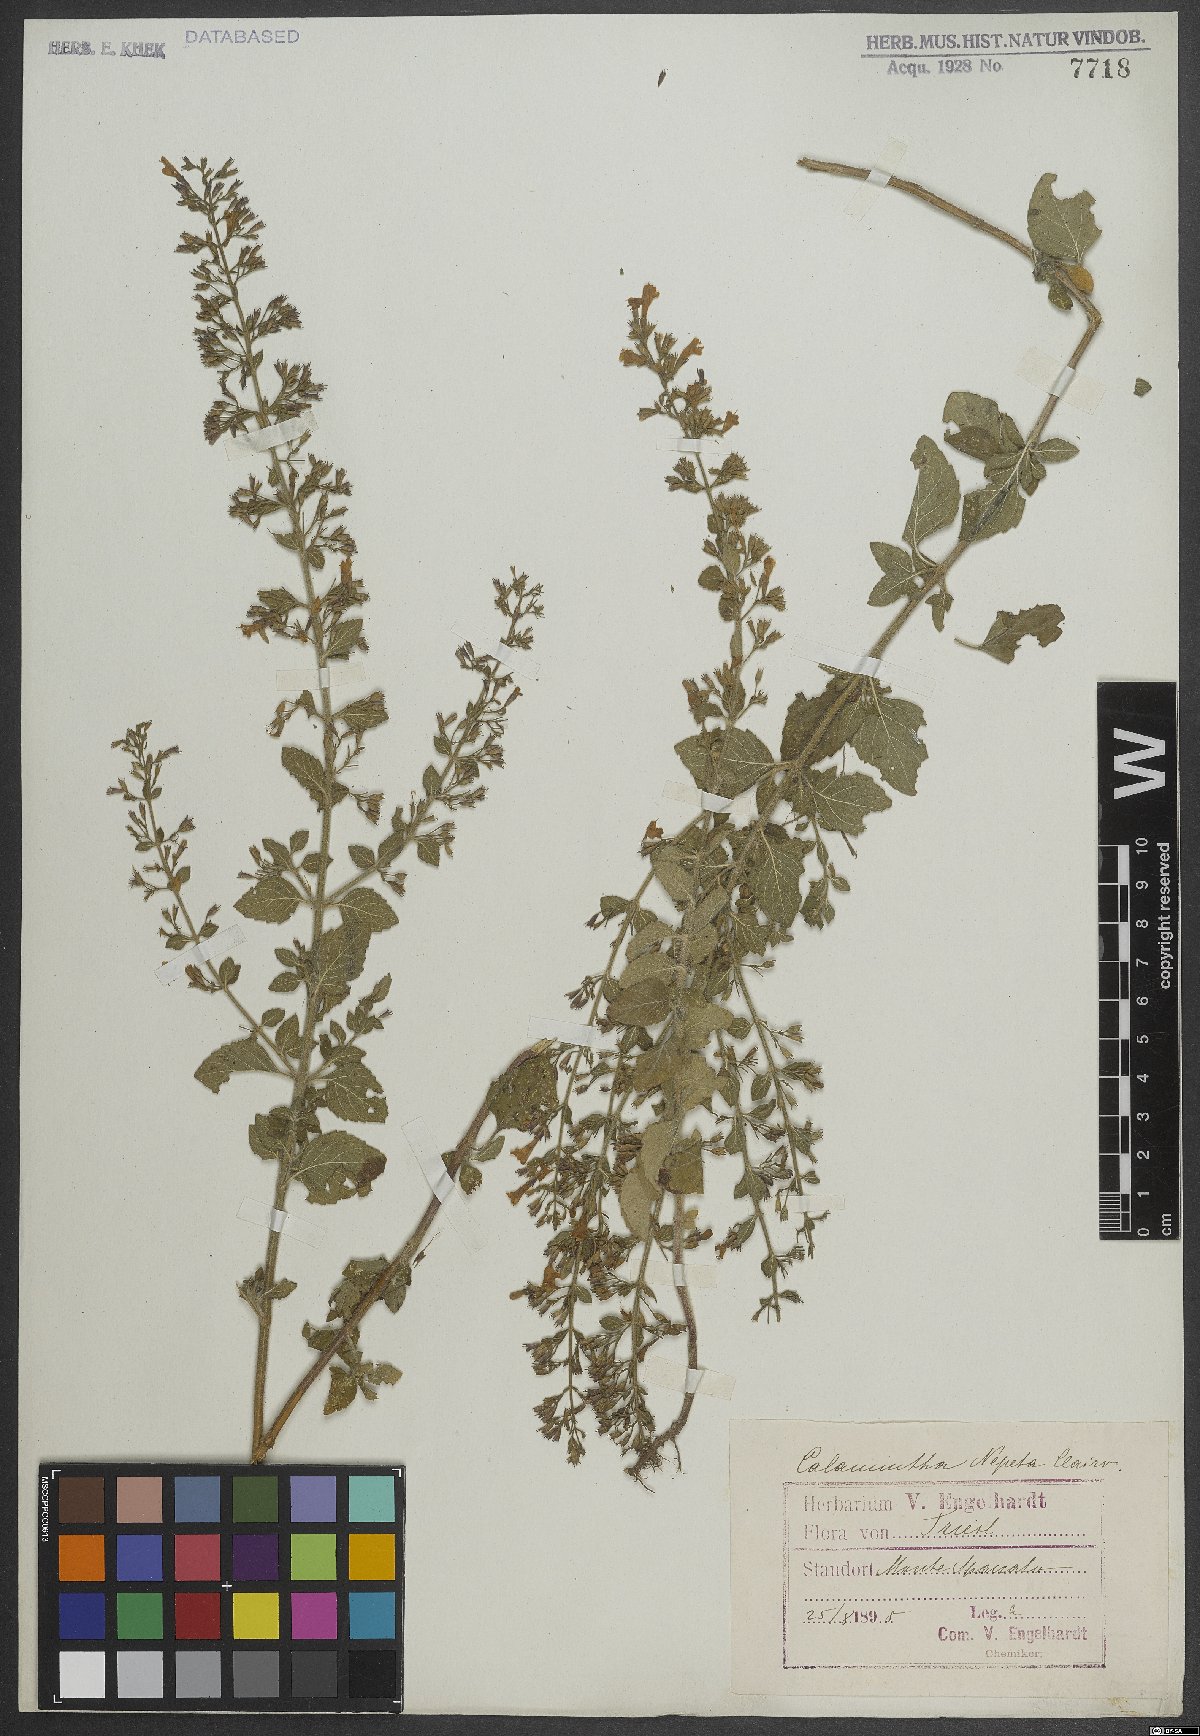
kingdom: Plantae
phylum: Tracheophyta
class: Magnoliopsida
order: Lamiales
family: Lamiaceae
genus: Clinopodium
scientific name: Clinopodium nepeta
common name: Lesser calamint
